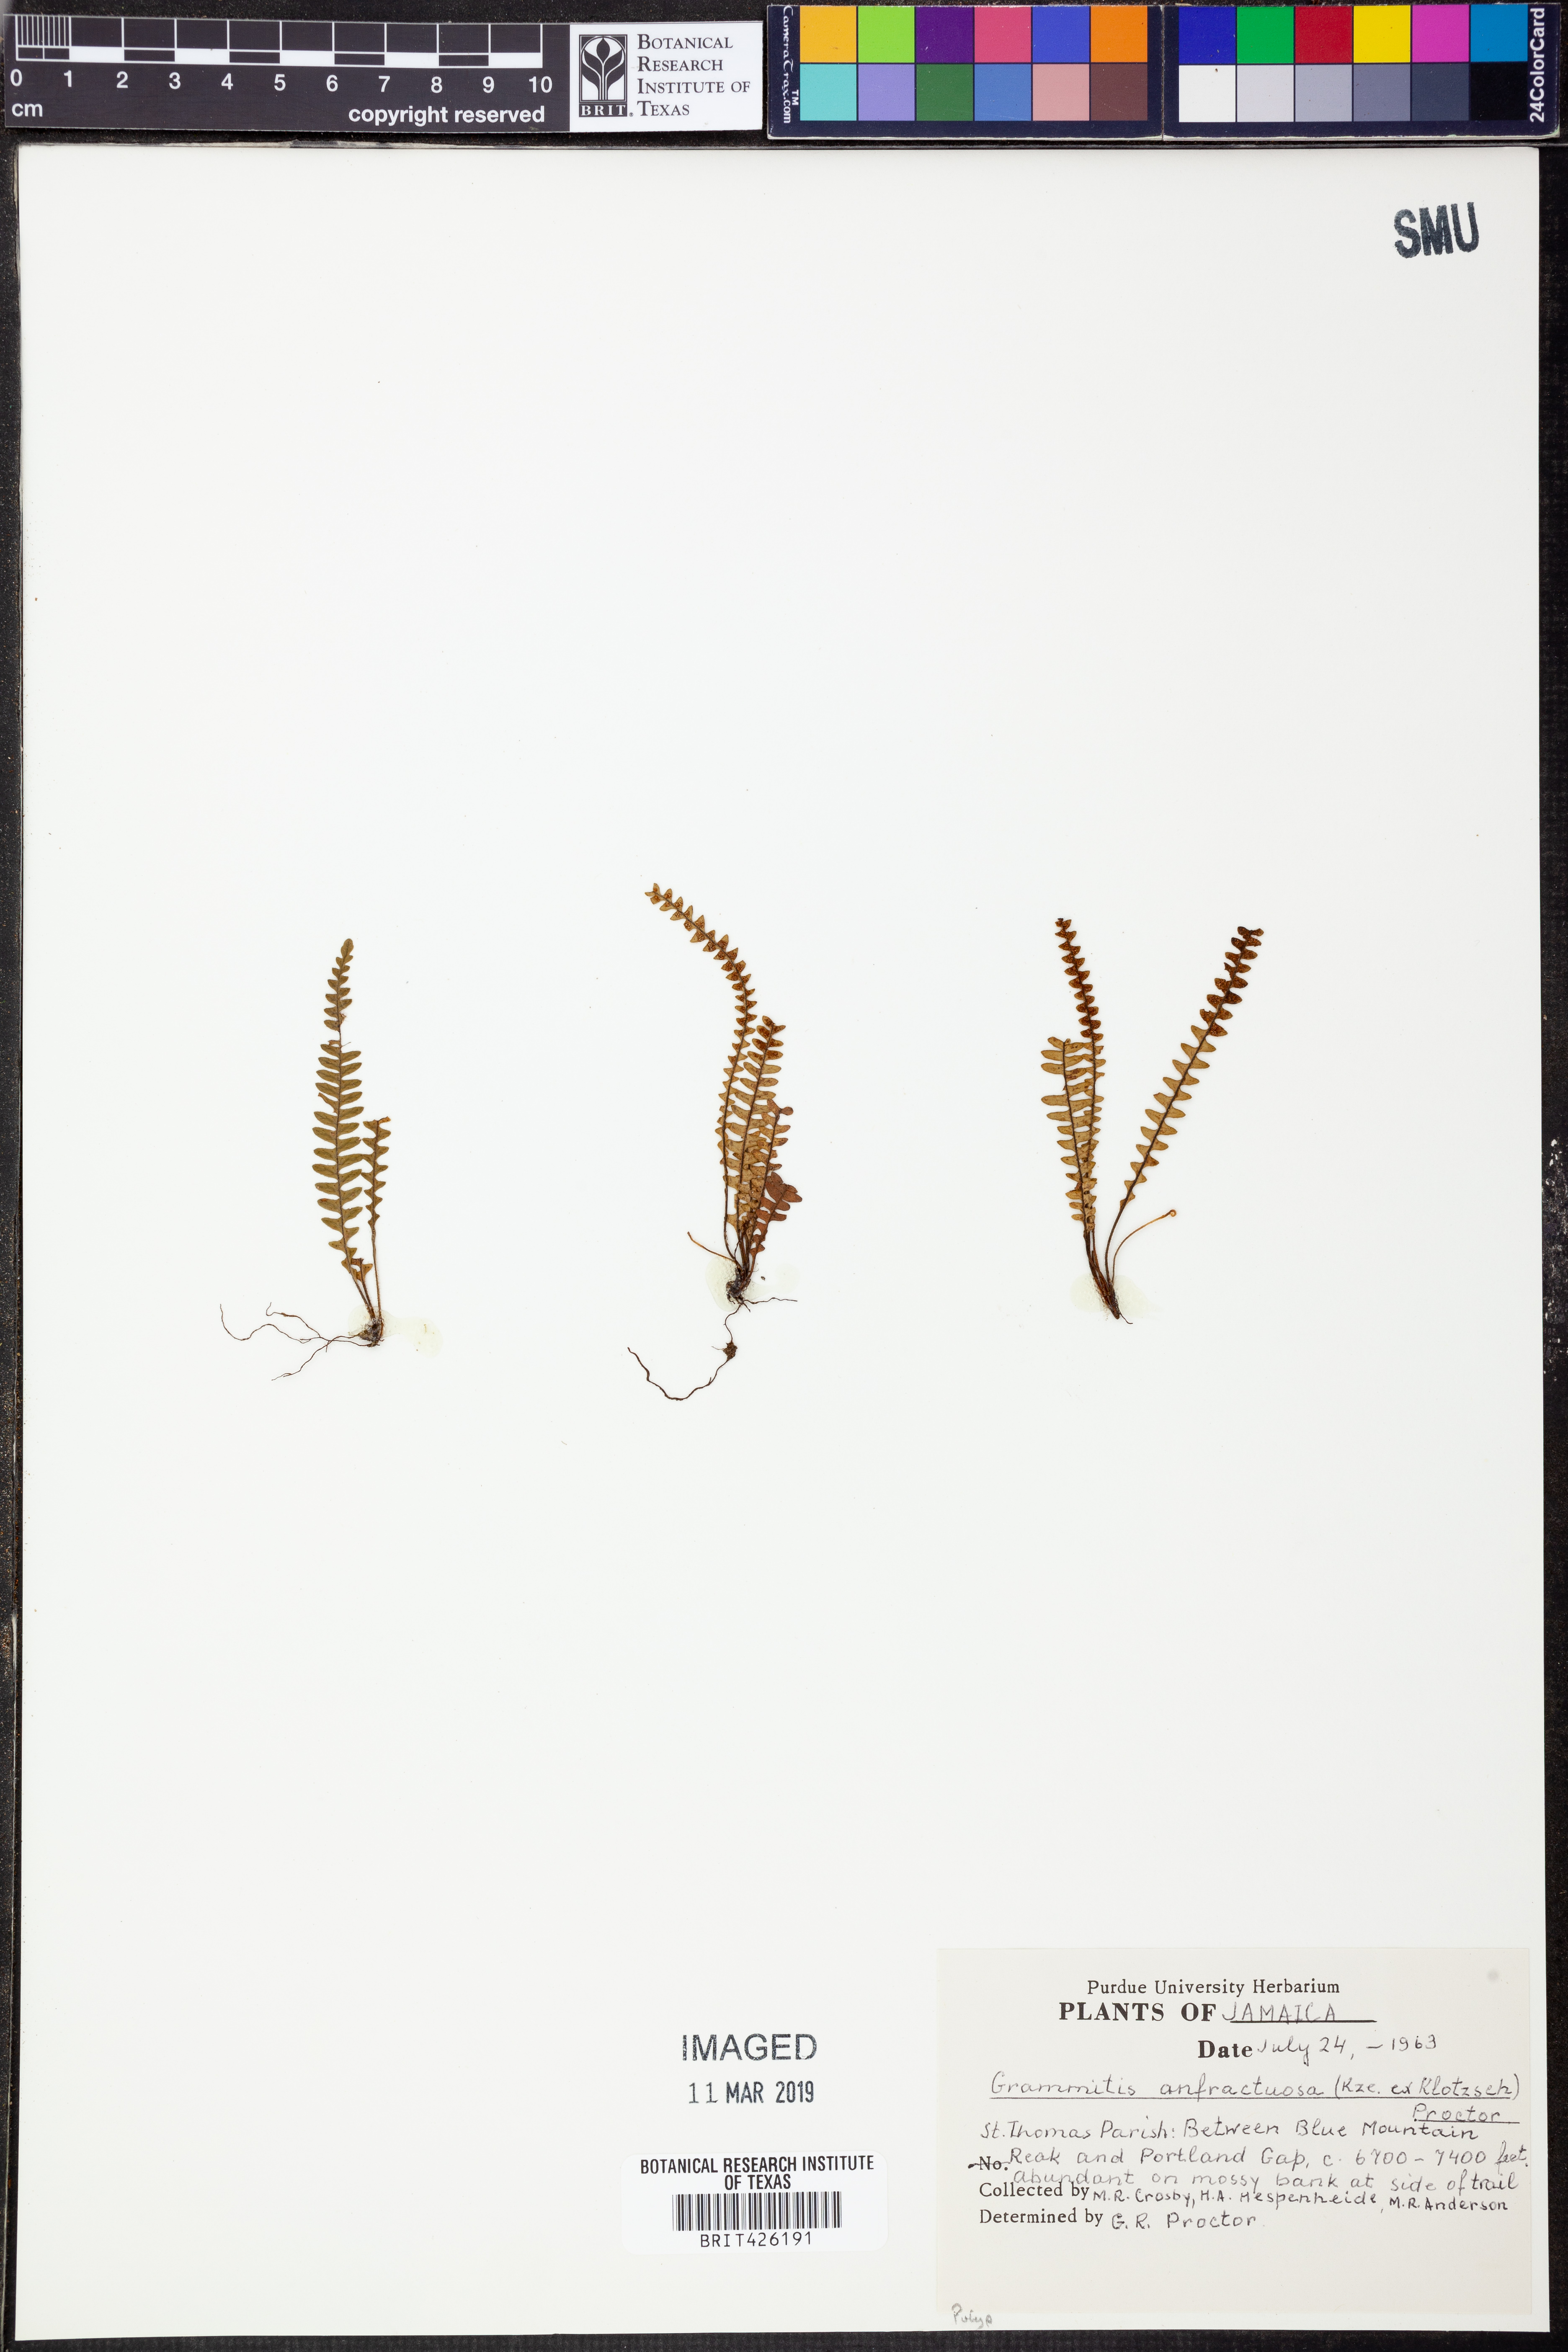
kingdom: Plantae
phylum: Tracheophyta
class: Polypodiopsida
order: Polypodiales
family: Polypodiaceae
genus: Ascogrammitis
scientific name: Ascogrammitis anfractuosa
